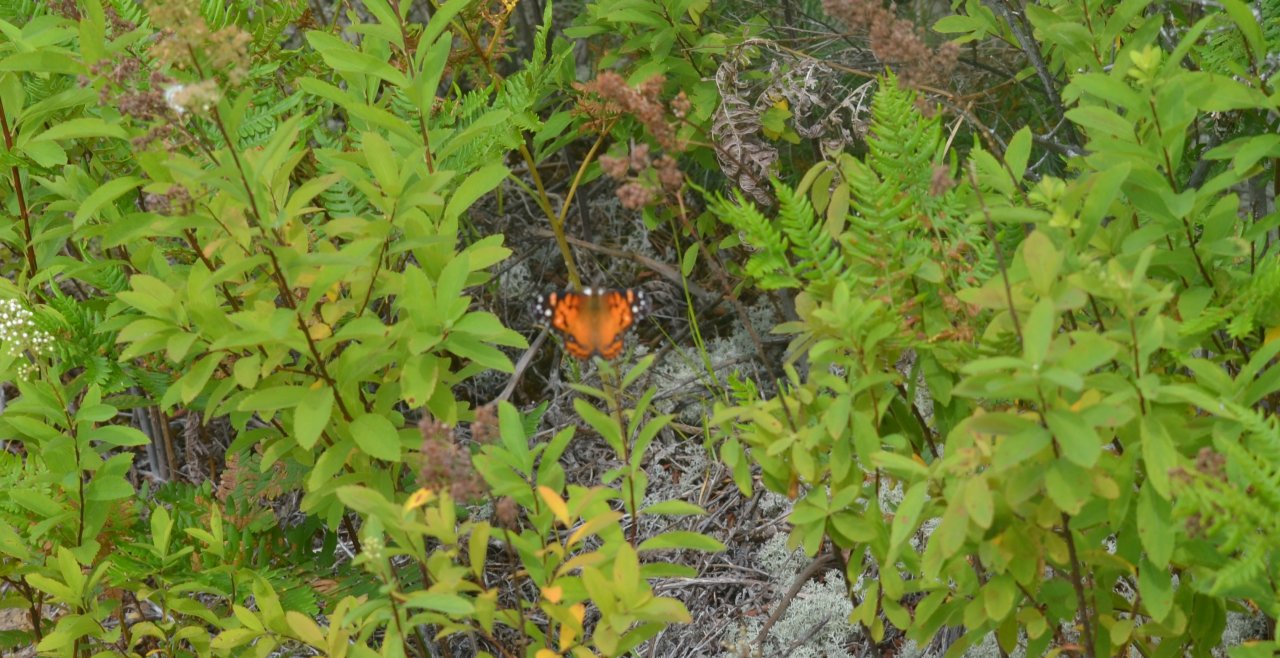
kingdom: Animalia
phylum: Arthropoda
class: Insecta
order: Lepidoptera
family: Nymphalidae
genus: Vanessa
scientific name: Vanessa virginiensis
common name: American Lady
